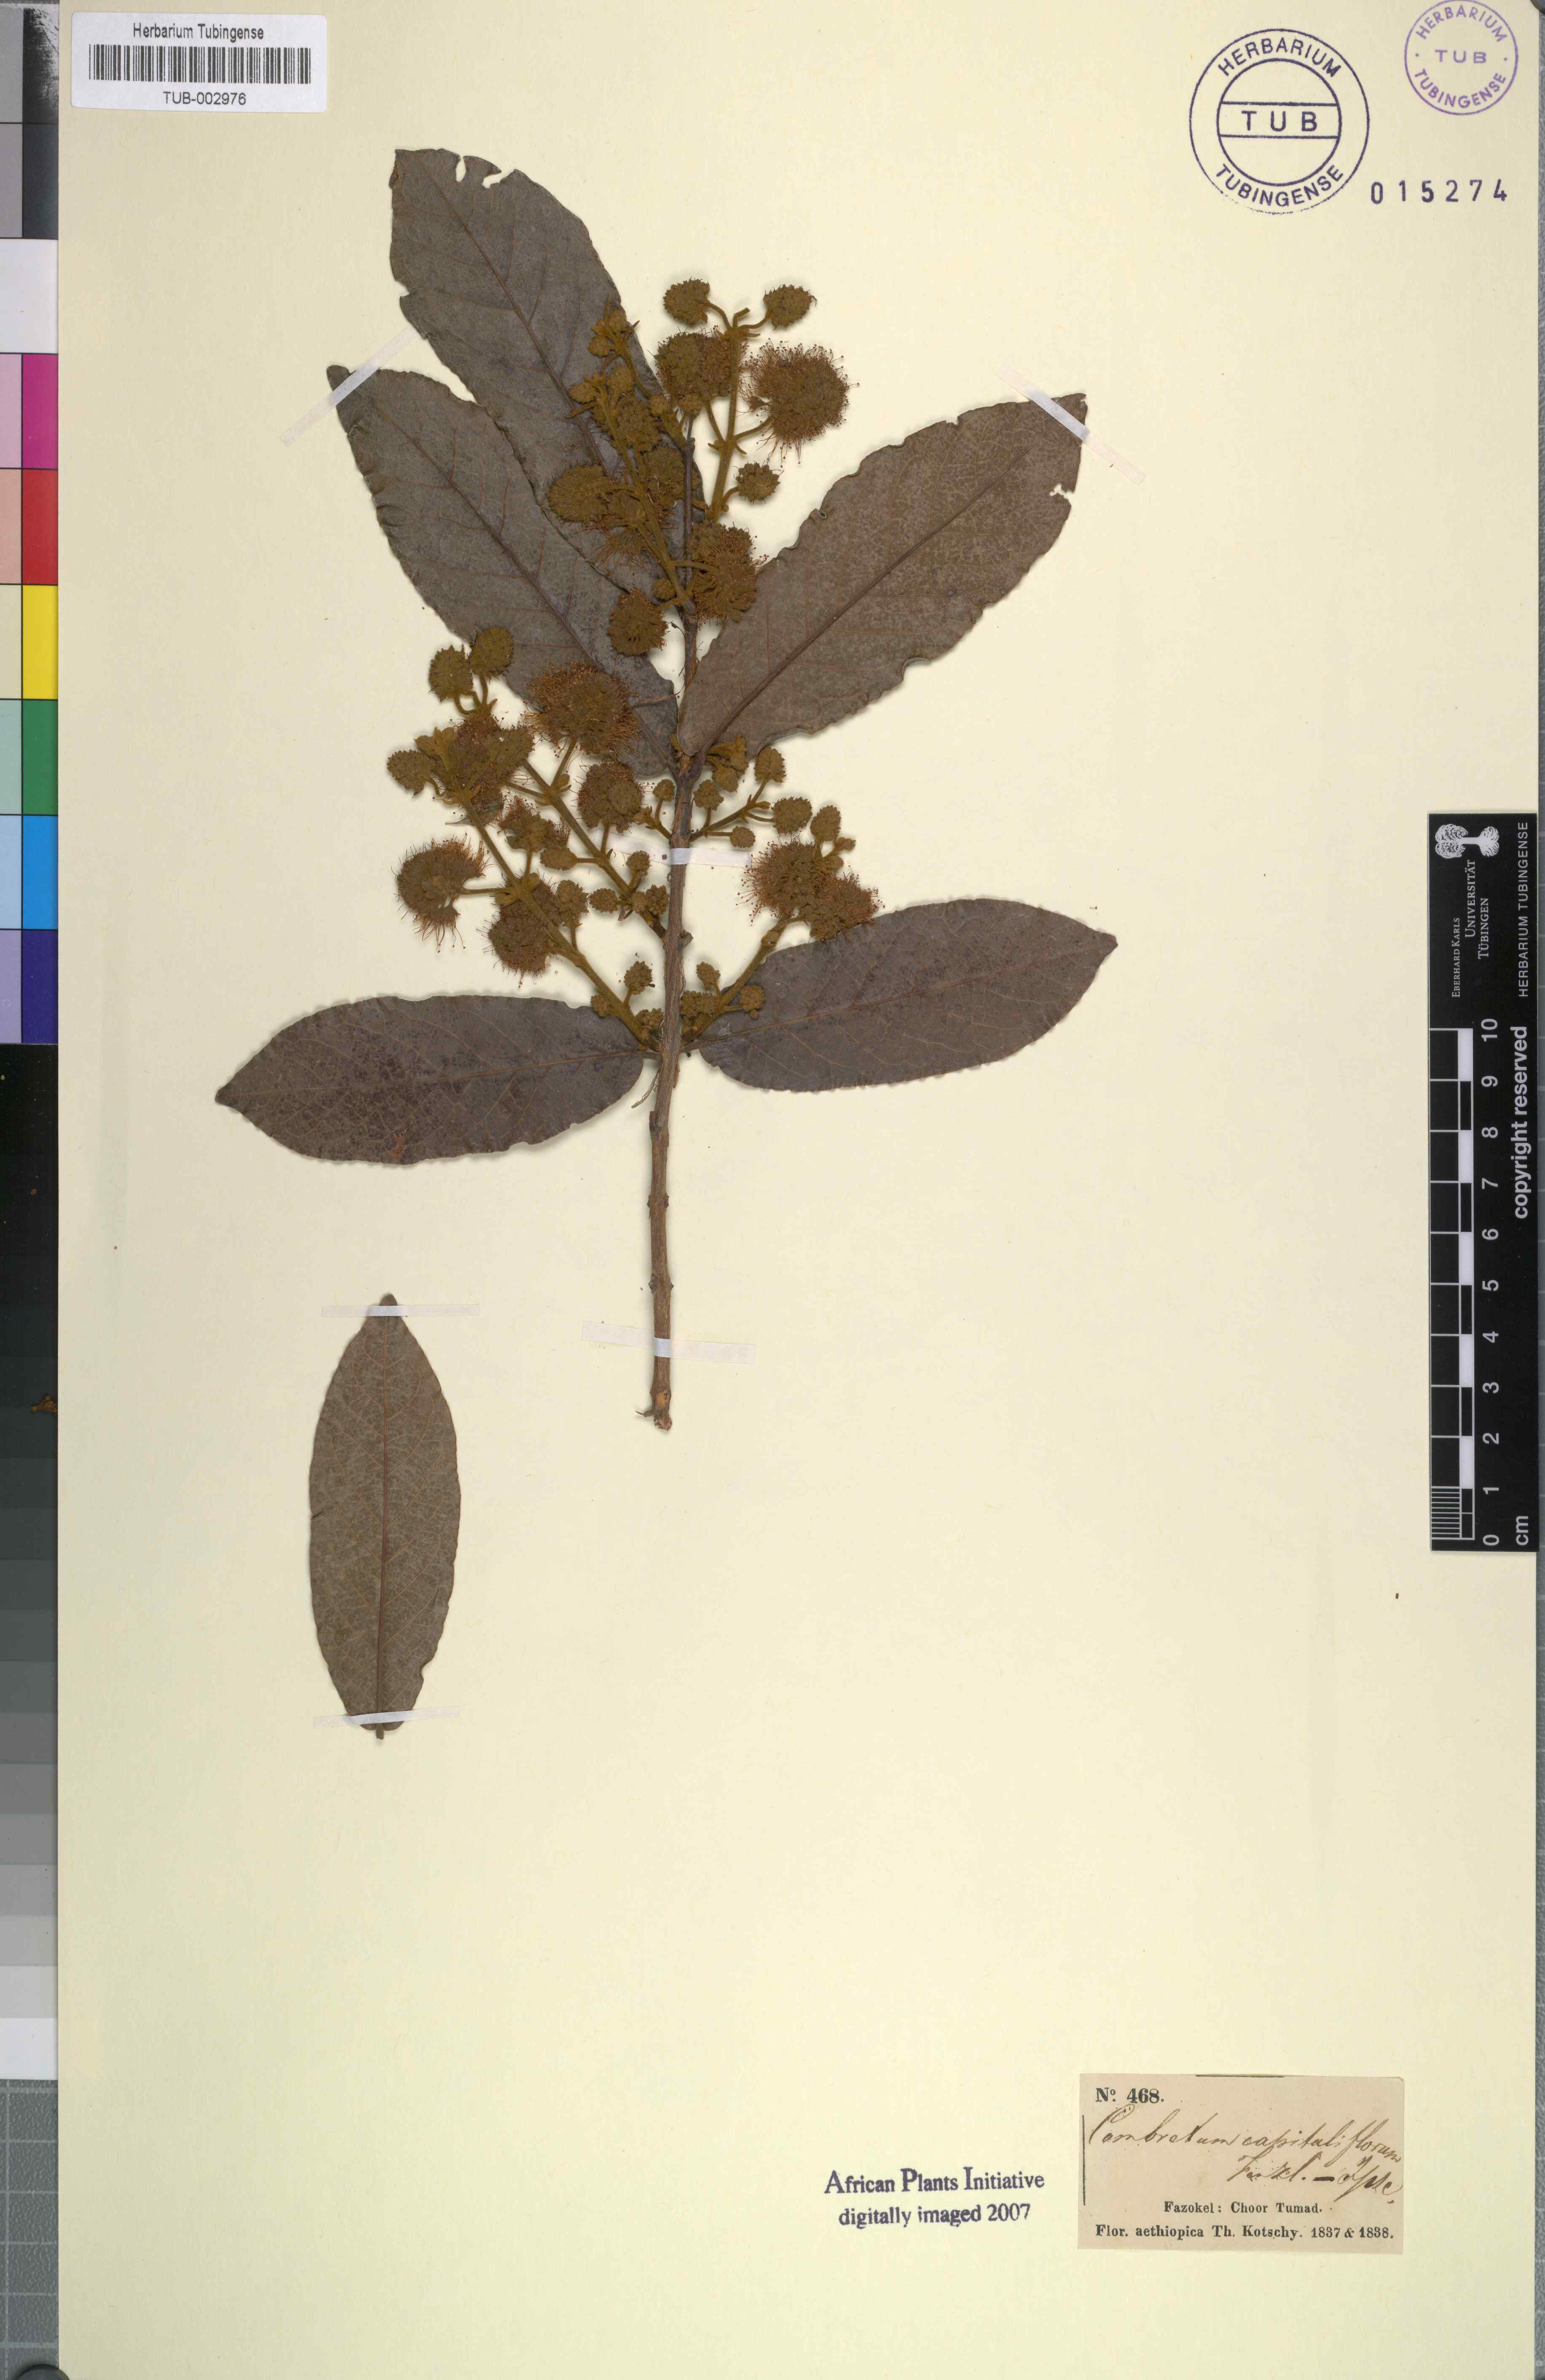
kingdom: Plantae
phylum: Tracheophyta
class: Magnoliopsida
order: Myrtales
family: Combretaceae
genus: Combretum
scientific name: Combretum capituliflorum
